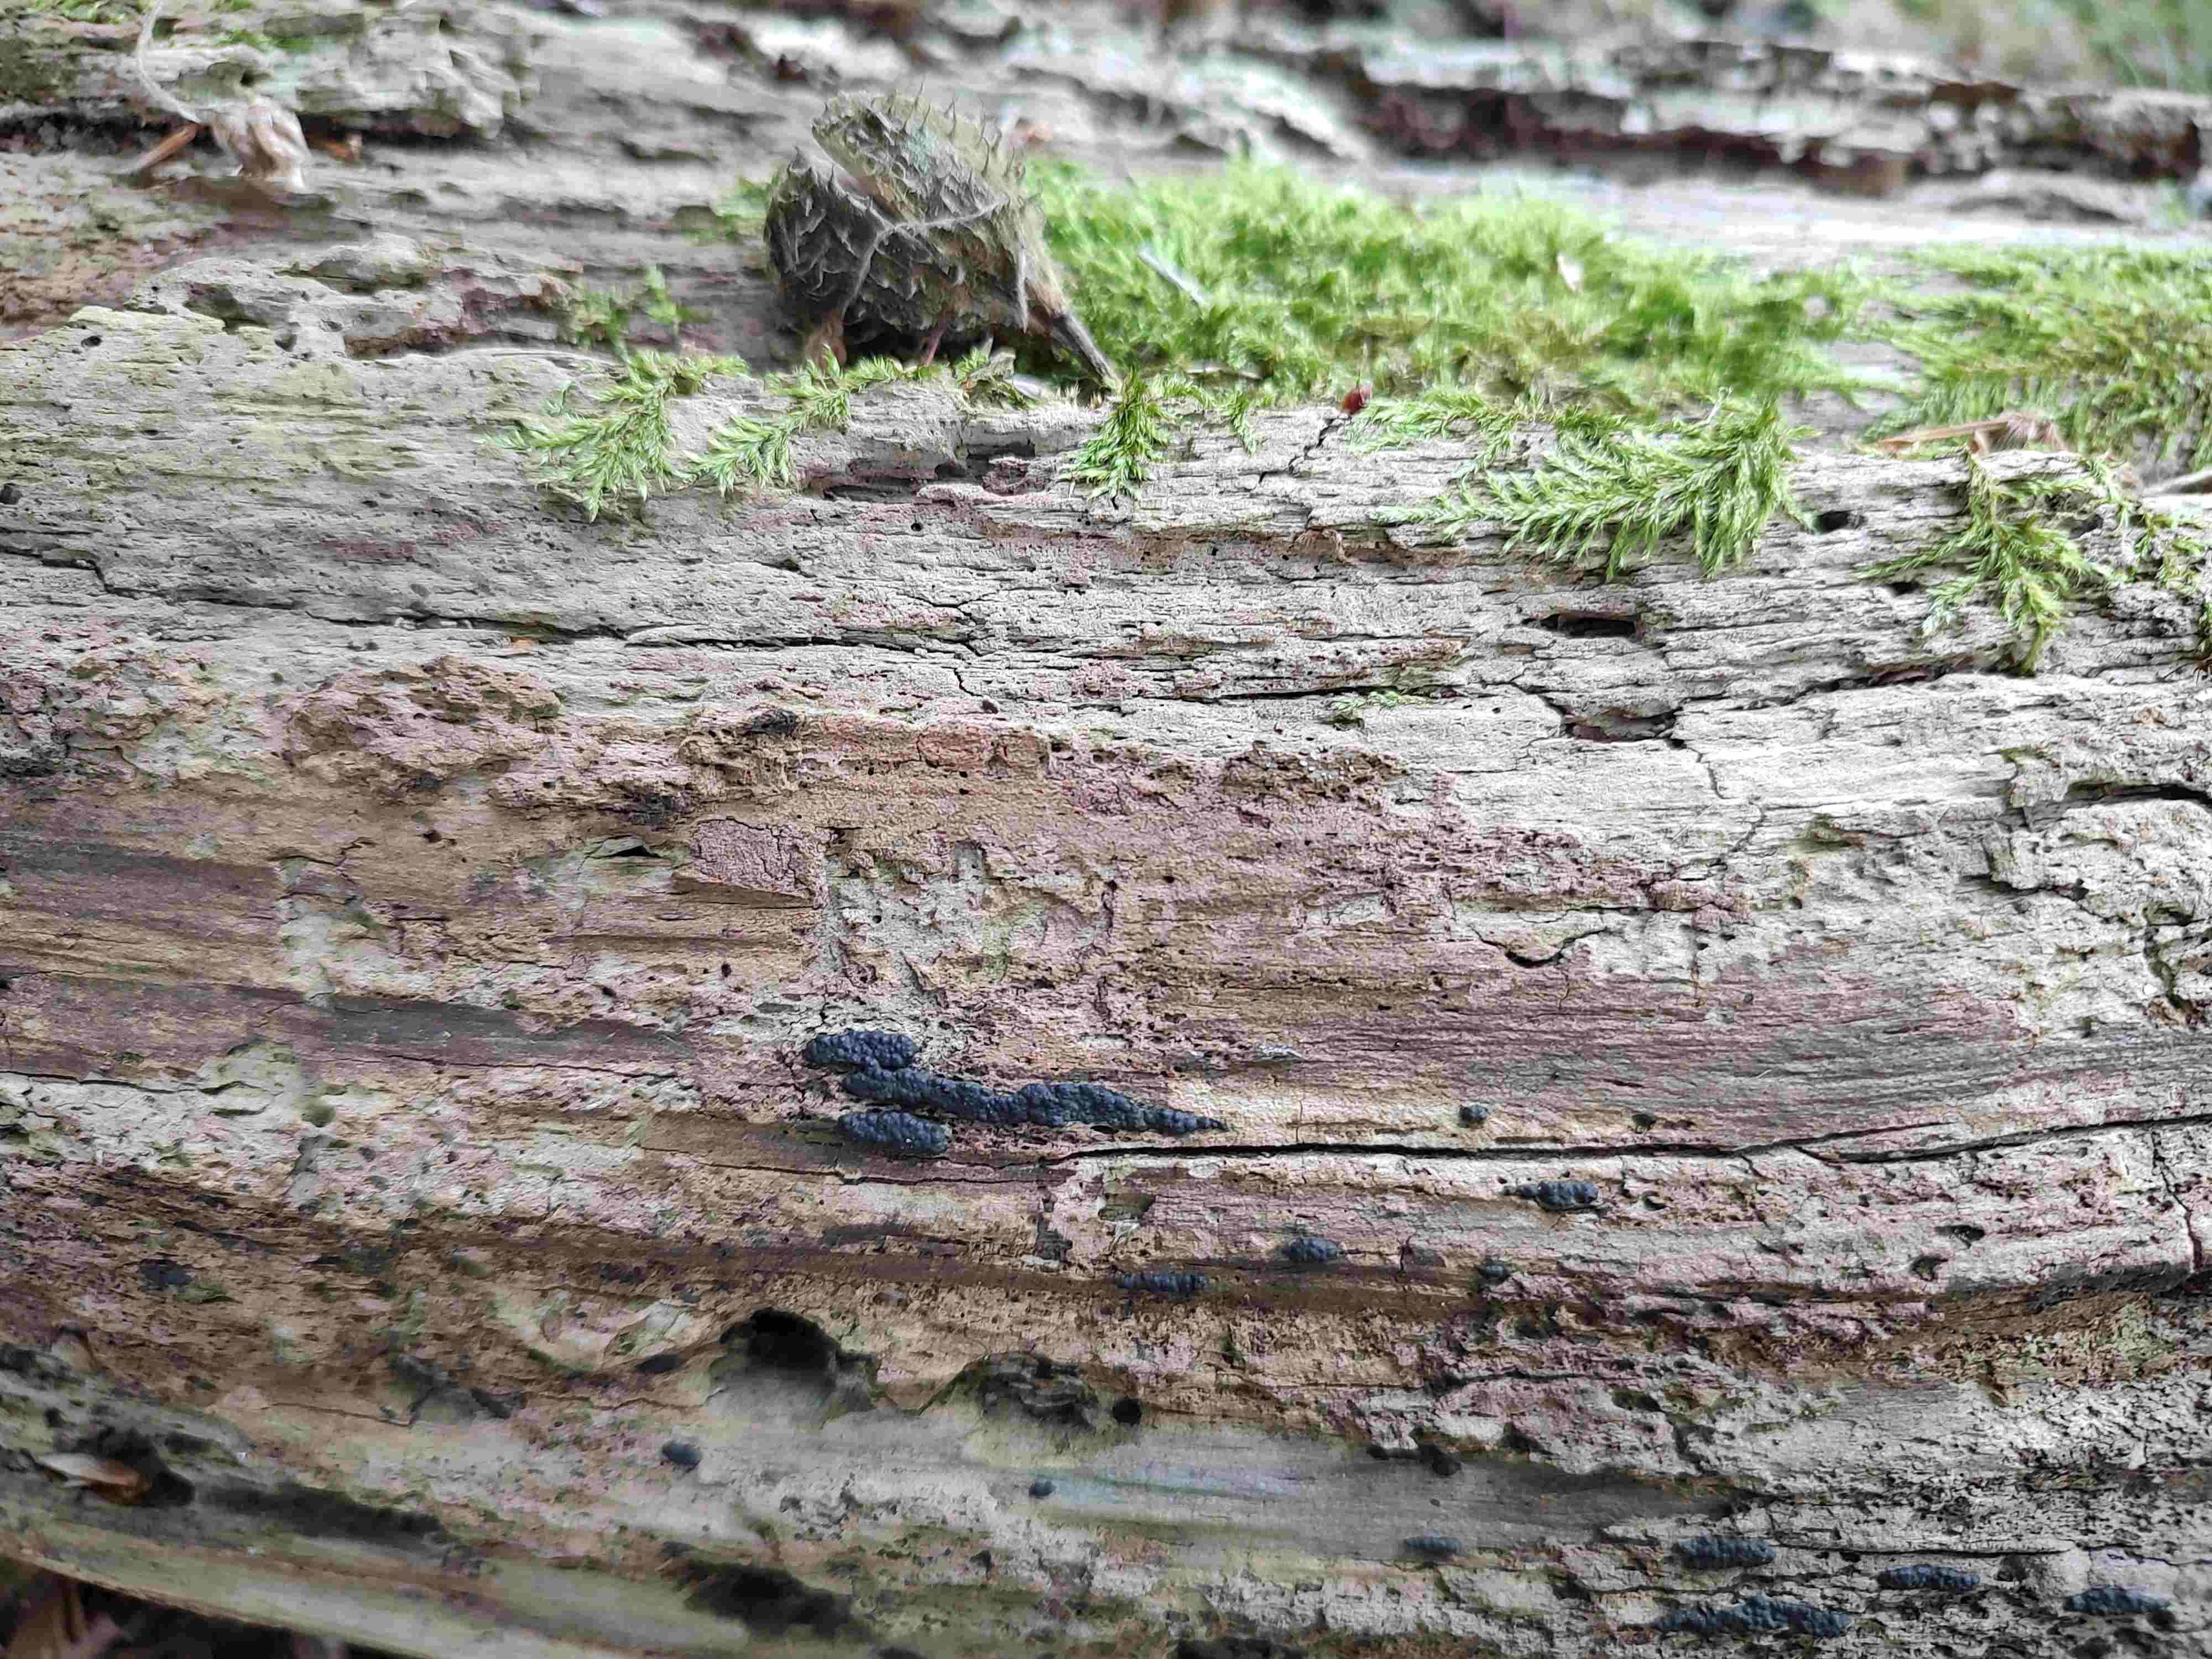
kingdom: Fungi
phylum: Ascomycota
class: Sordariomycetes
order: Xylariales
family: Xylariaceae
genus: Nemania
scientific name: Nemania serpens
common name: almindelig kuldyne
